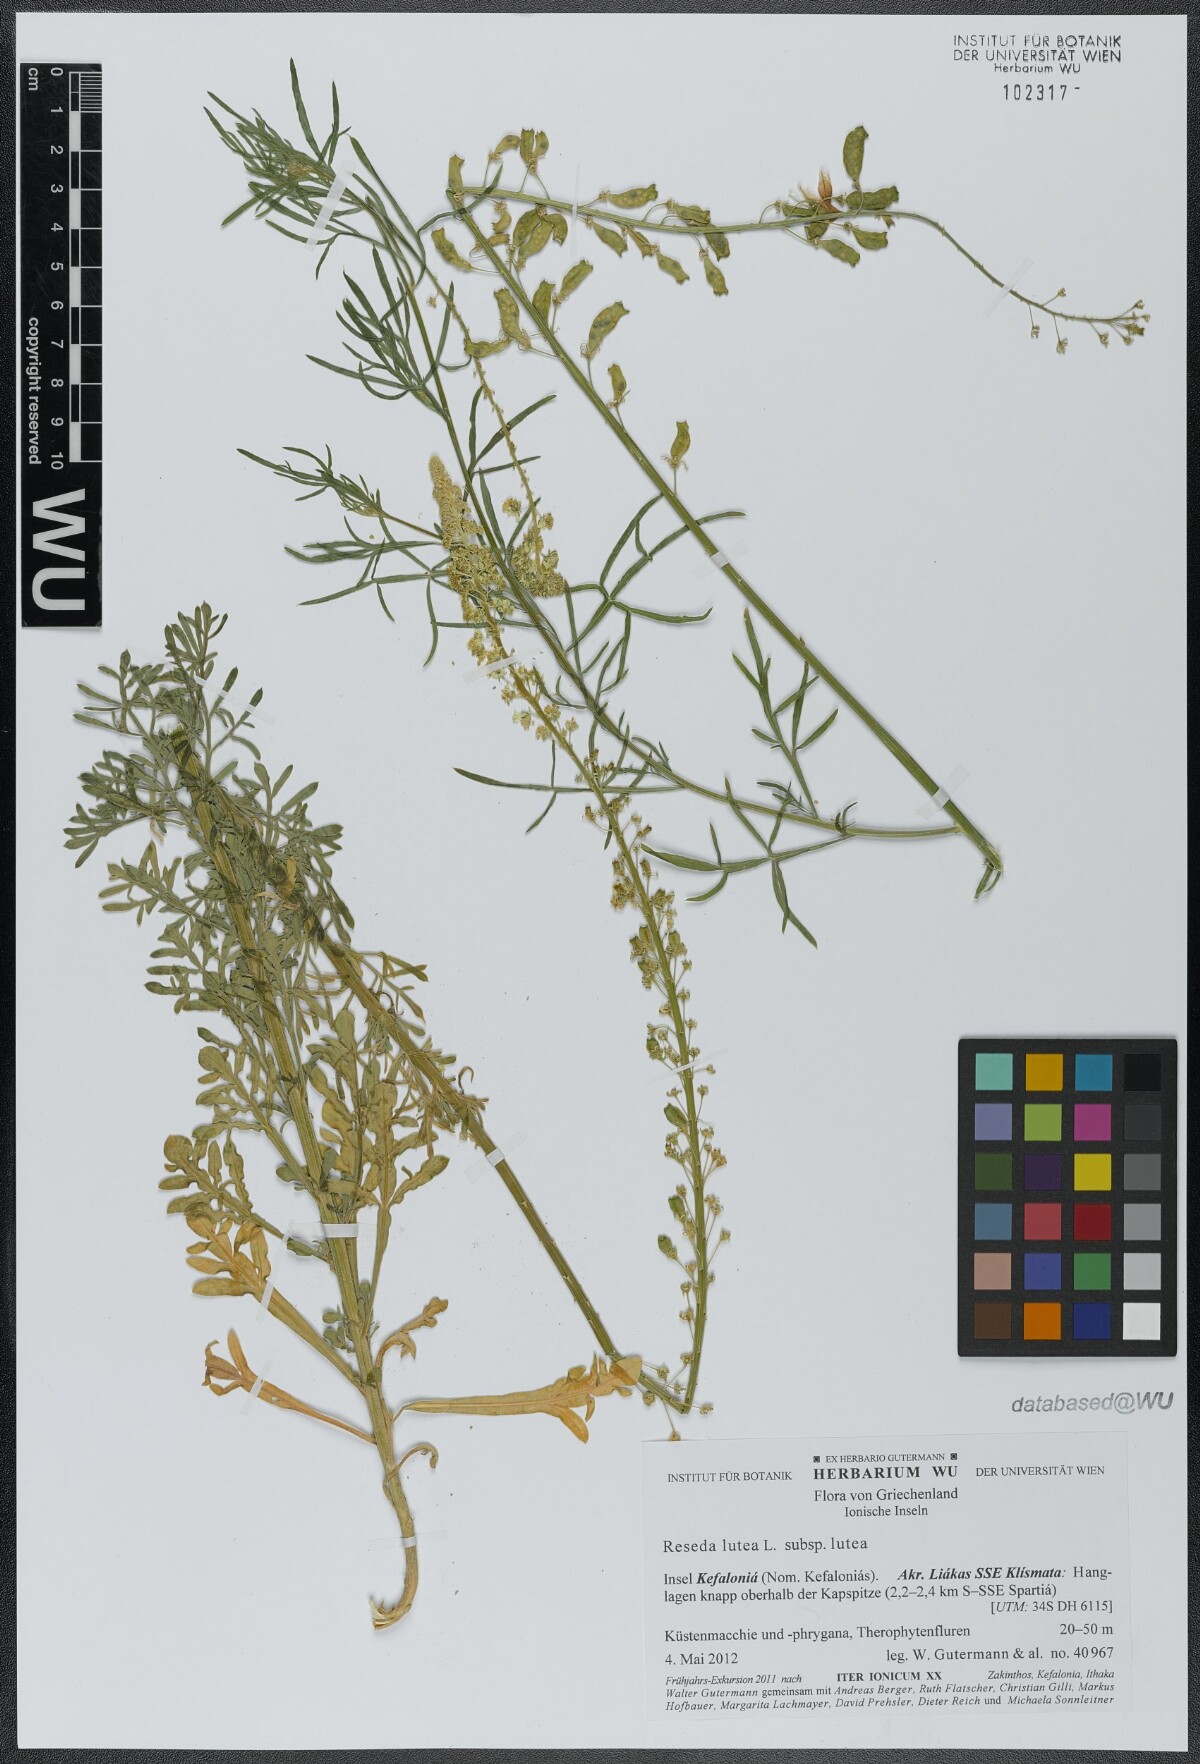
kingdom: Plantae
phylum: Tracheophyta
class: Magnoliopsida
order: Brassicales
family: Resedaceae
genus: Reseda
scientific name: Reseda lutea
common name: Wild mignonette
